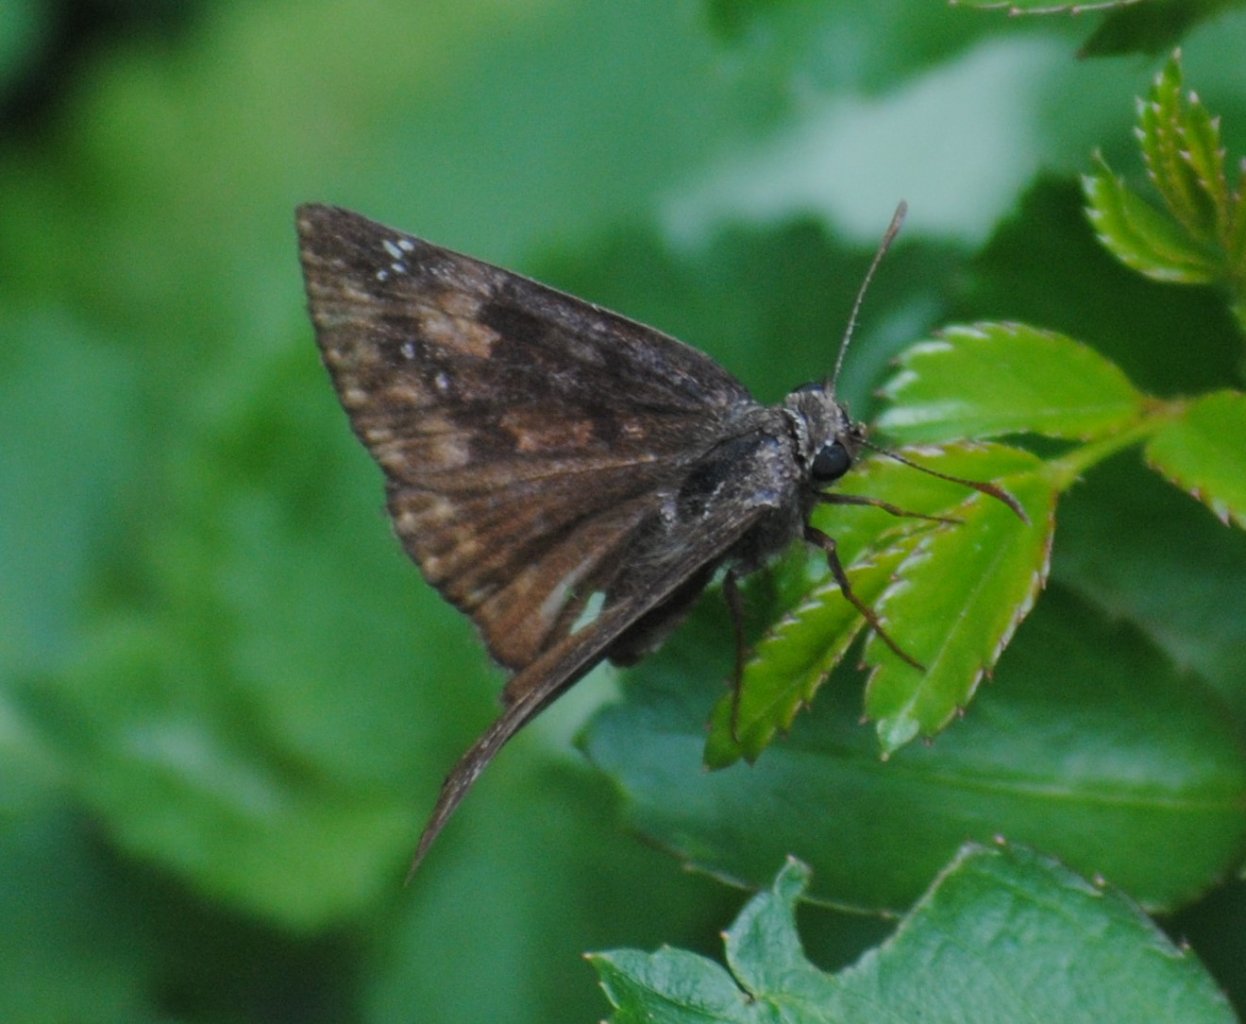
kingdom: Animalia
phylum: Arthropoda
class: Insecta
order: Lepidoptera
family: Hesperiidae
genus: Gesta
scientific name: Gesta
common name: Wild Indigo Duskywing
